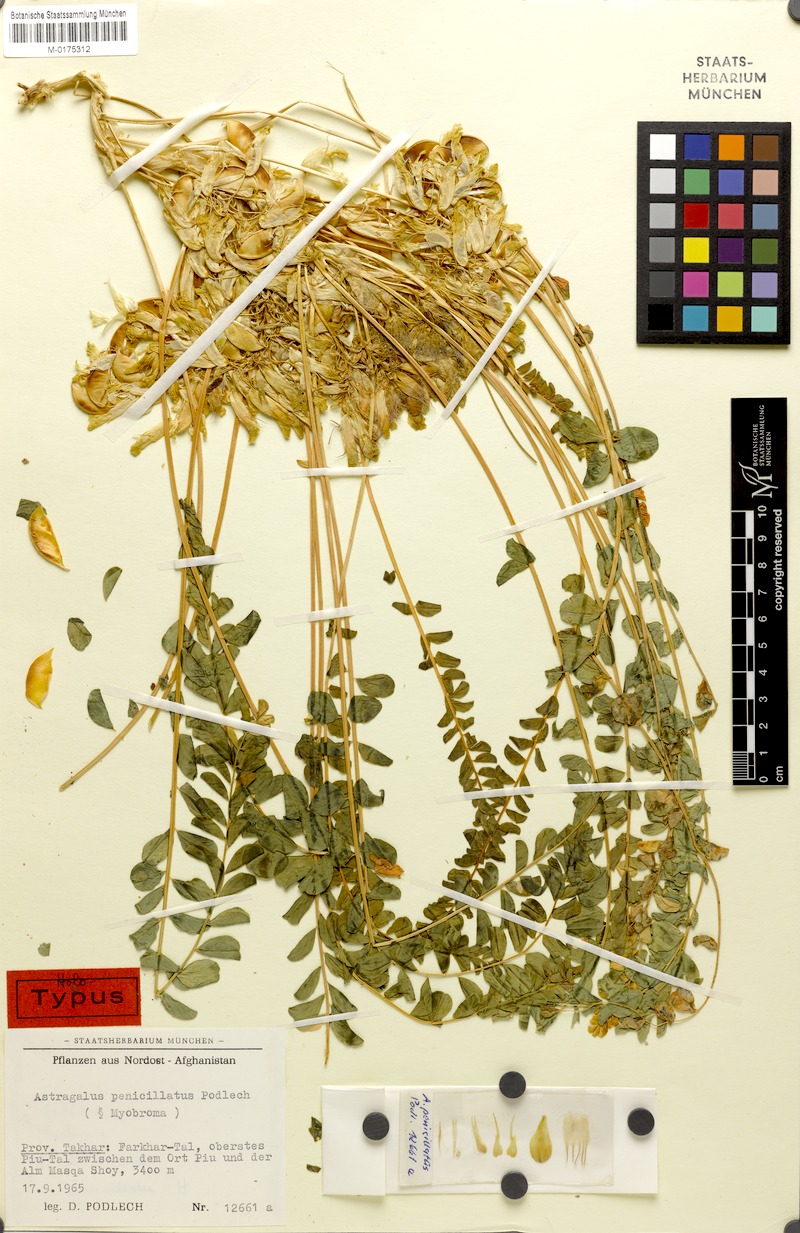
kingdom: Plantae
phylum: Tracheophyta
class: Magnoliopsida
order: Fabales
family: Fabaceae
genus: Astragalus
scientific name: Astragalus penicillatus
